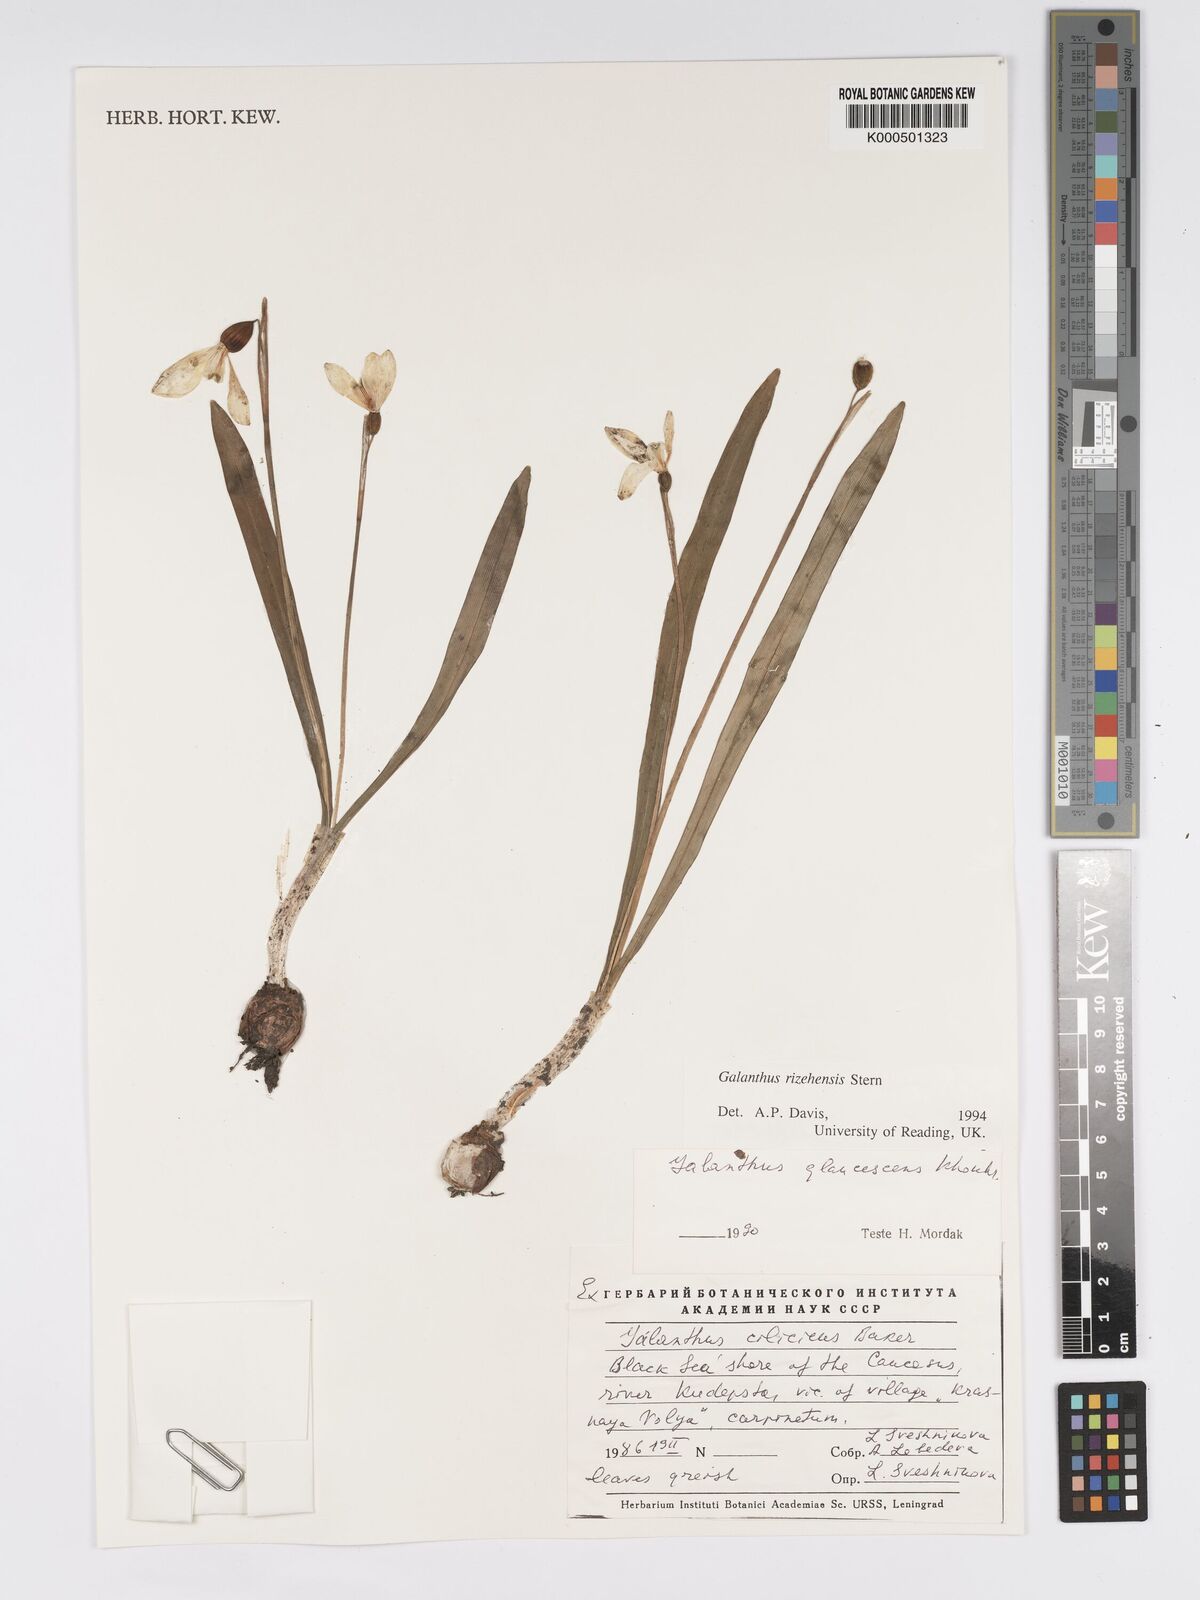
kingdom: Plantae
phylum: Tracheophyta
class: Liliopsida
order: Asparagales
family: Amaryllidaceae
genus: Galanthus
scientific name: Galanthus rizehensis
